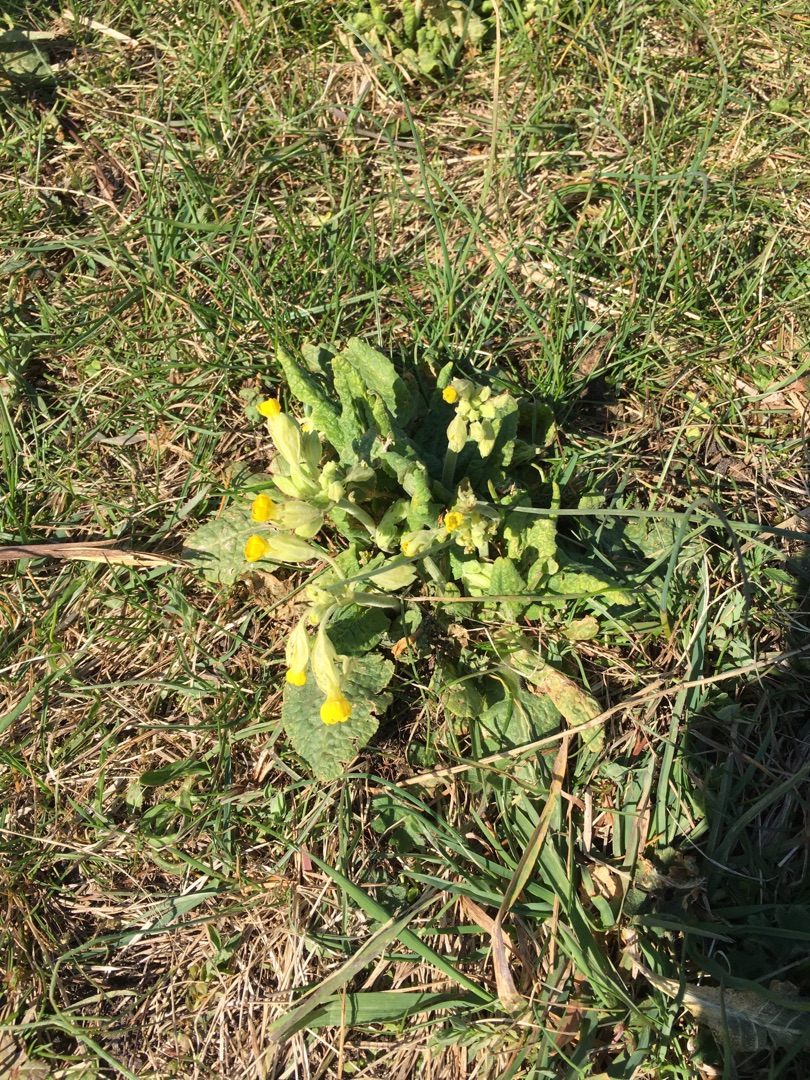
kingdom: Plantae
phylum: Tracheophyta
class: Magnoliopsida
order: Ericales
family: Primulaceae
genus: Primula
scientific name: Primula veris
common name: Hulkravet kodriver
